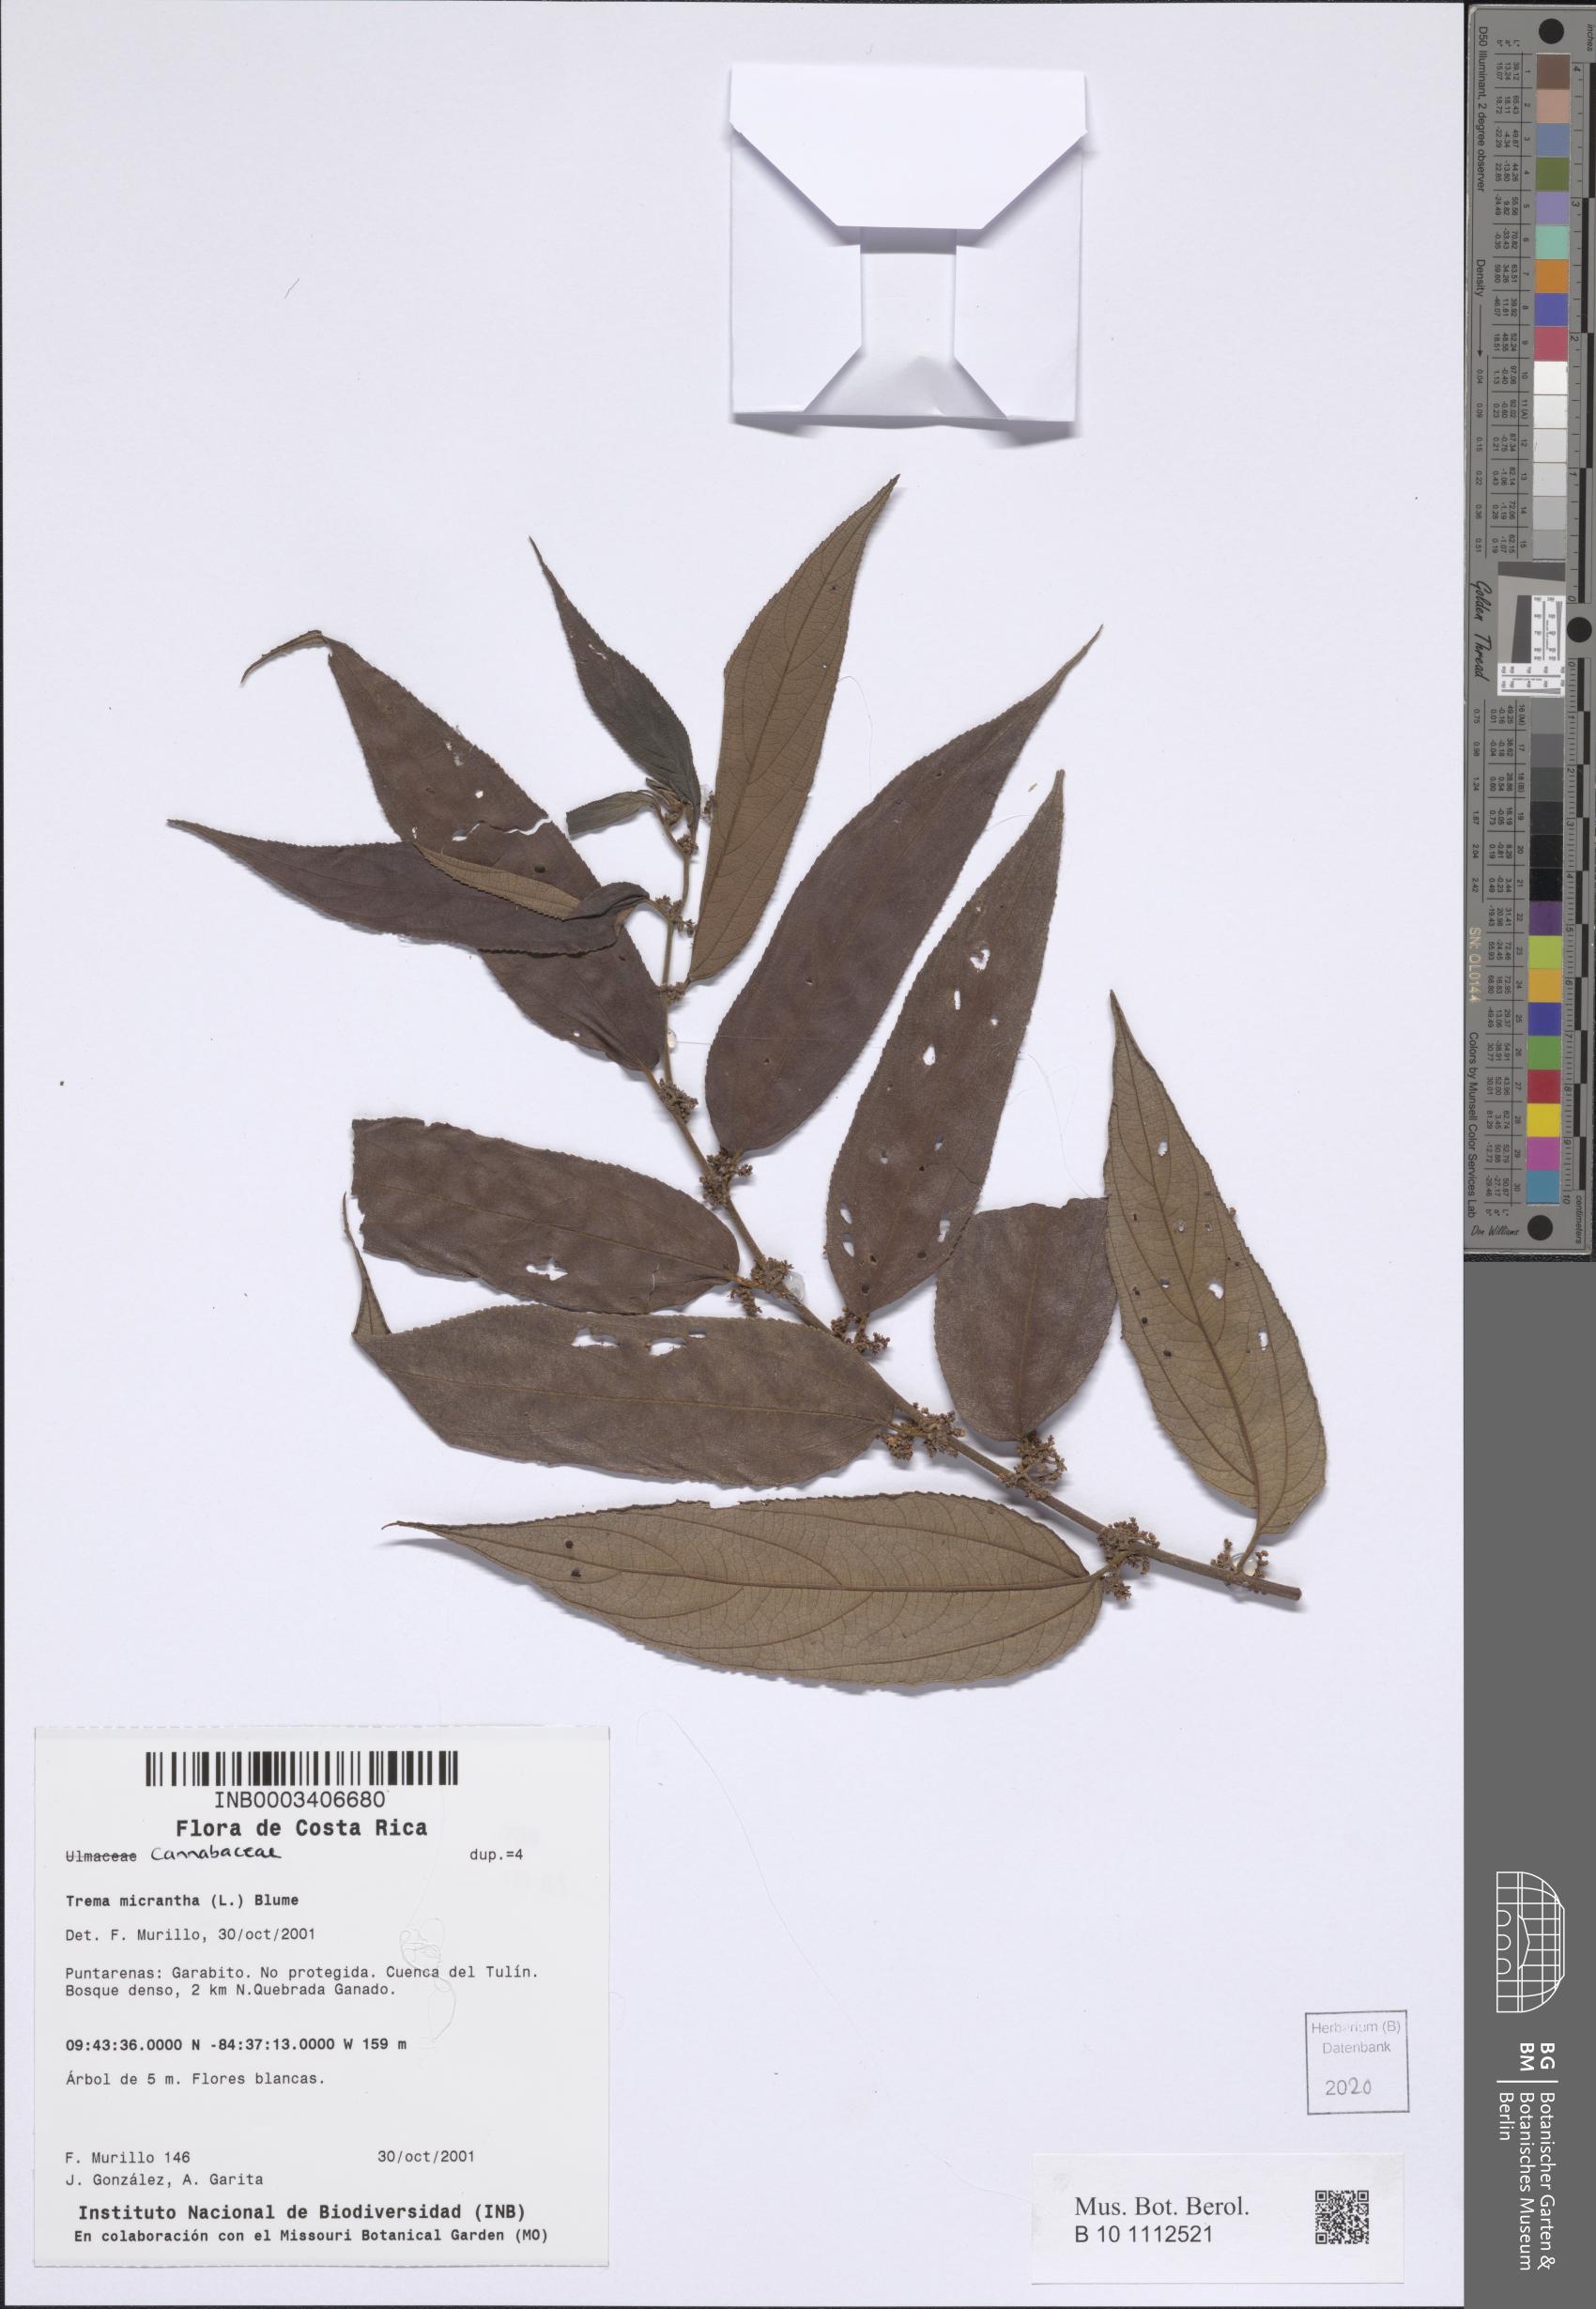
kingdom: Plantae
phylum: Tracheophyta
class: Magnoliopsida
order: Rosales
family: Cannabaceae
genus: Trema
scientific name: Trema micranthum
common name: Jamaican nettletree
